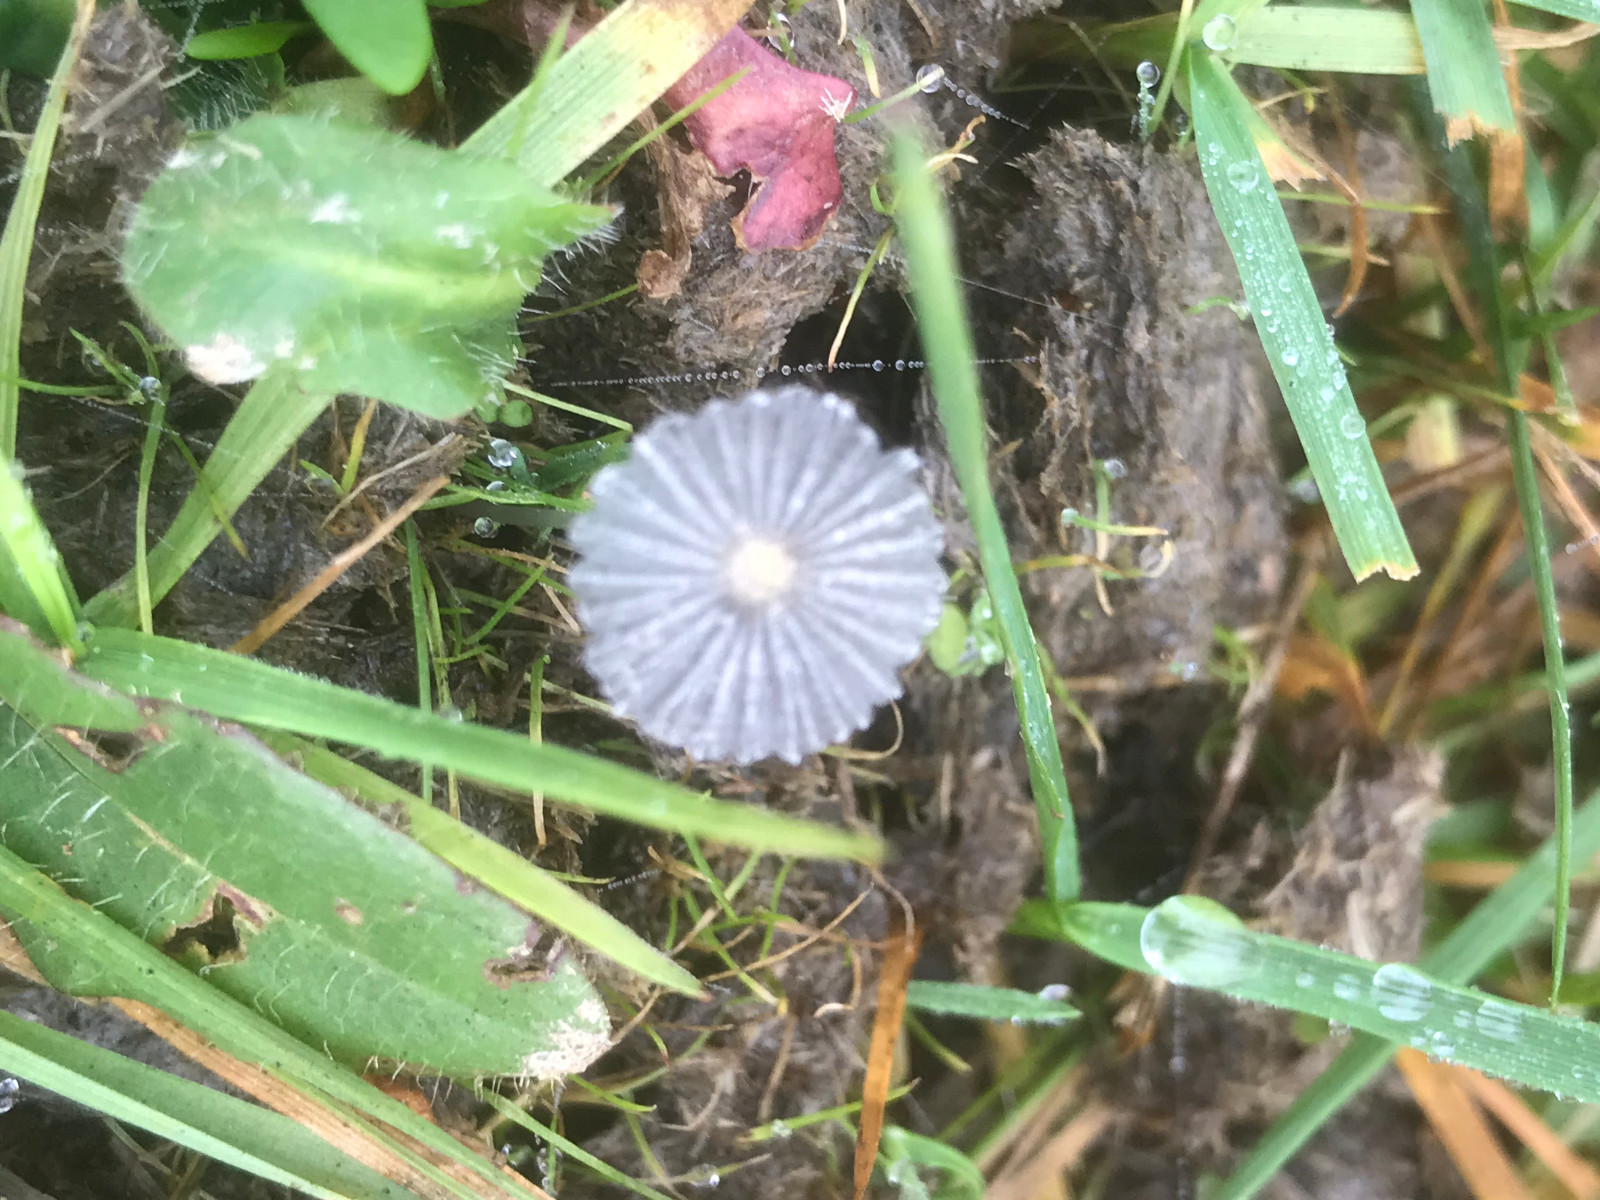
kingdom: Fungi
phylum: Basidiomycota
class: Agaricomycetes
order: Agaricales
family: Psathyrellaceae
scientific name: Psathyrellaceae
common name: mørkhatfamilien
